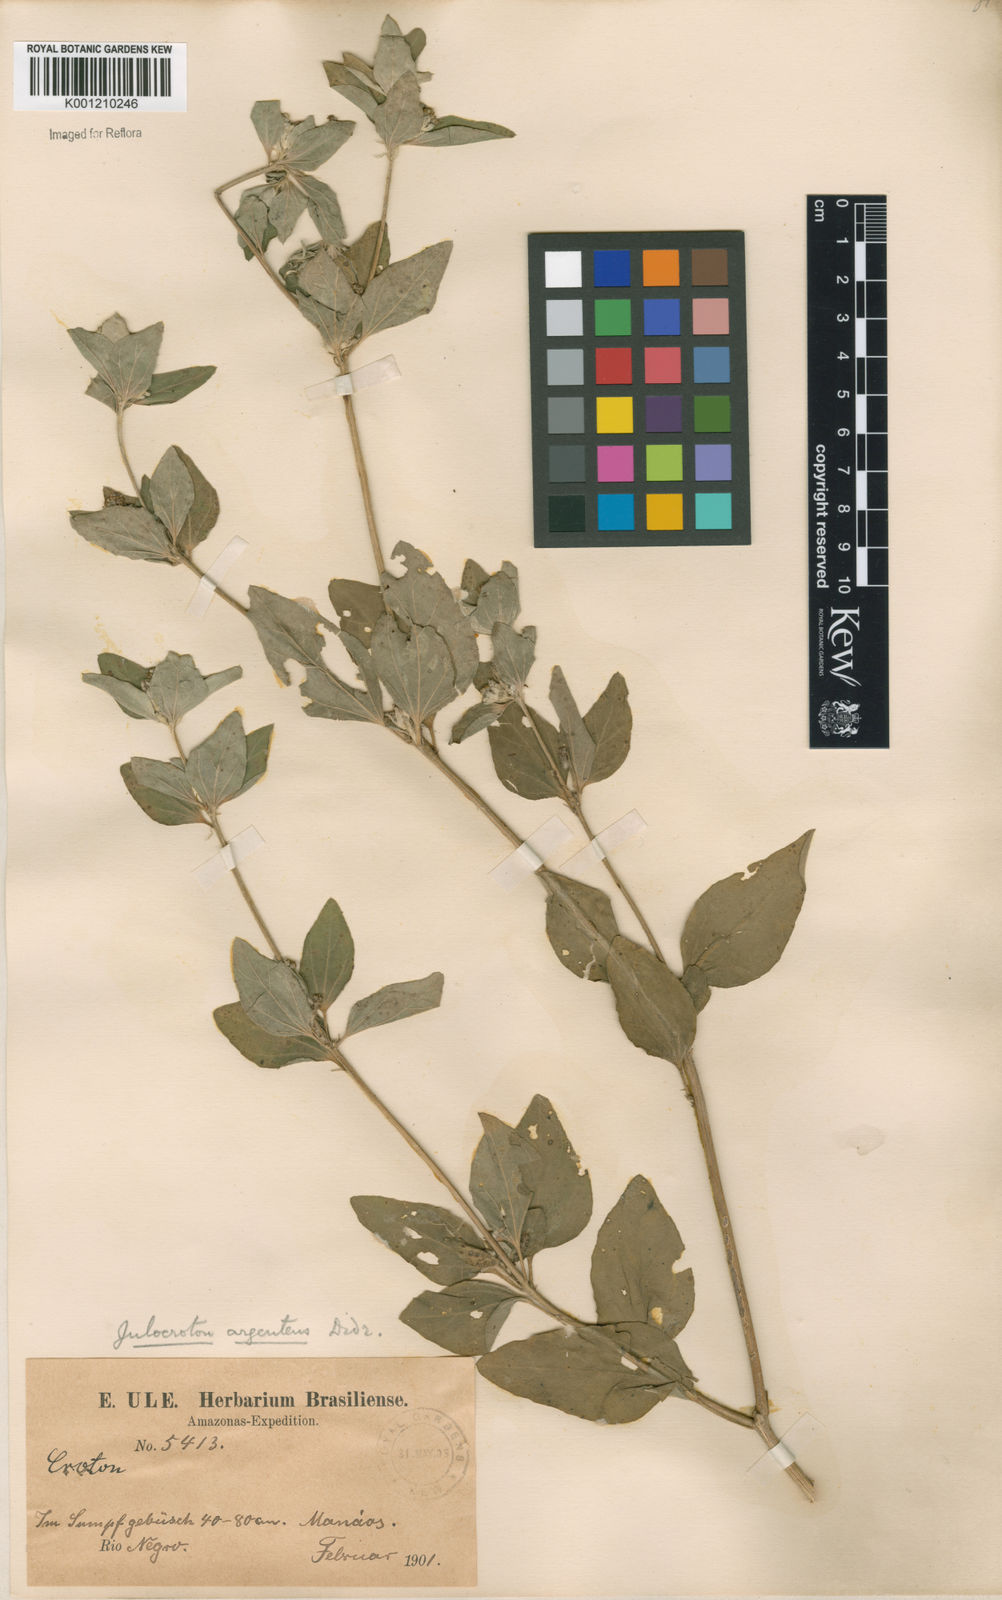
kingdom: Plantae
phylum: Tracheophyta
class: Magnoliopsida
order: Malpighiales
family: Euphorbiaceae
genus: Croton
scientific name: Croton
